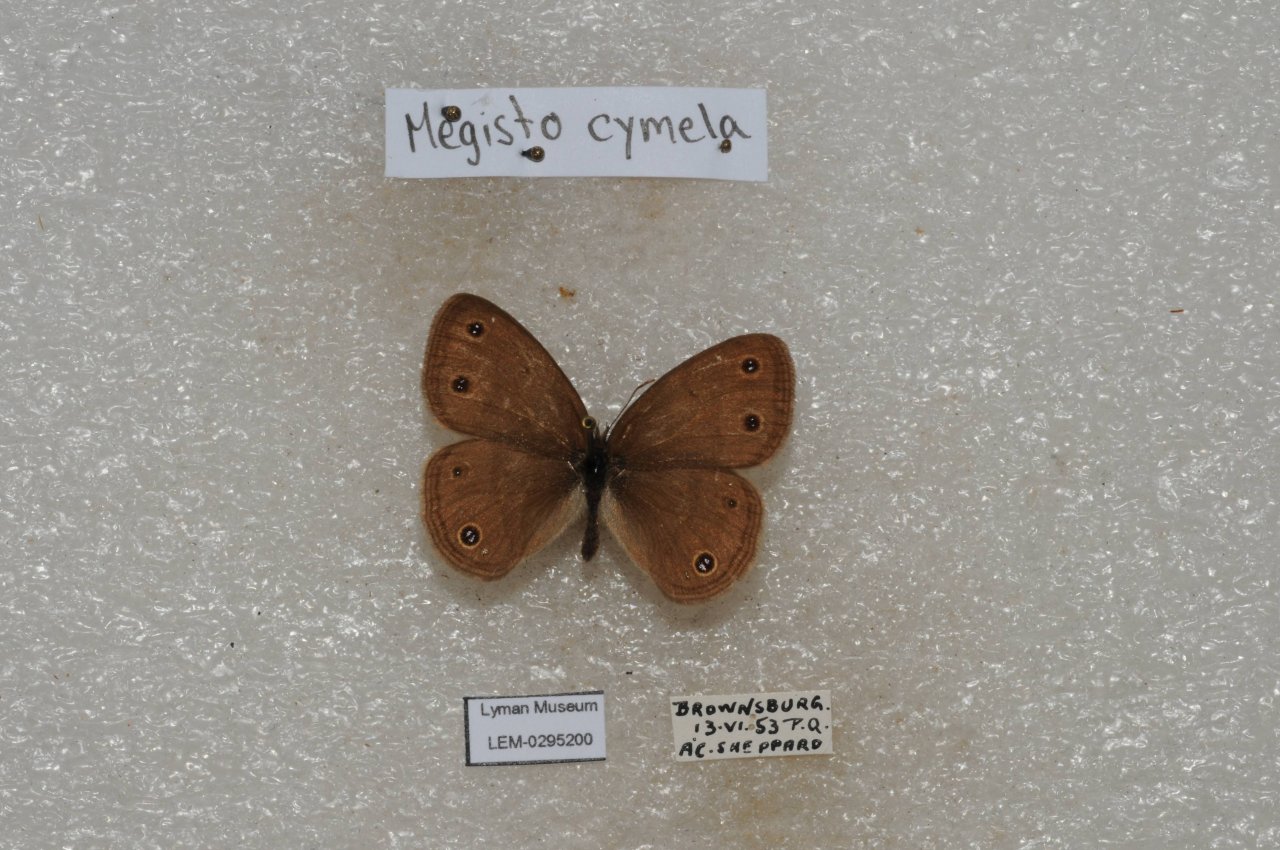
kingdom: Animalia
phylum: Arthropoda
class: Insecta
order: Lepidoptera
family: Nymphalidae
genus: Euptychia
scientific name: Euptychia cymela
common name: Little Wood Satyr
